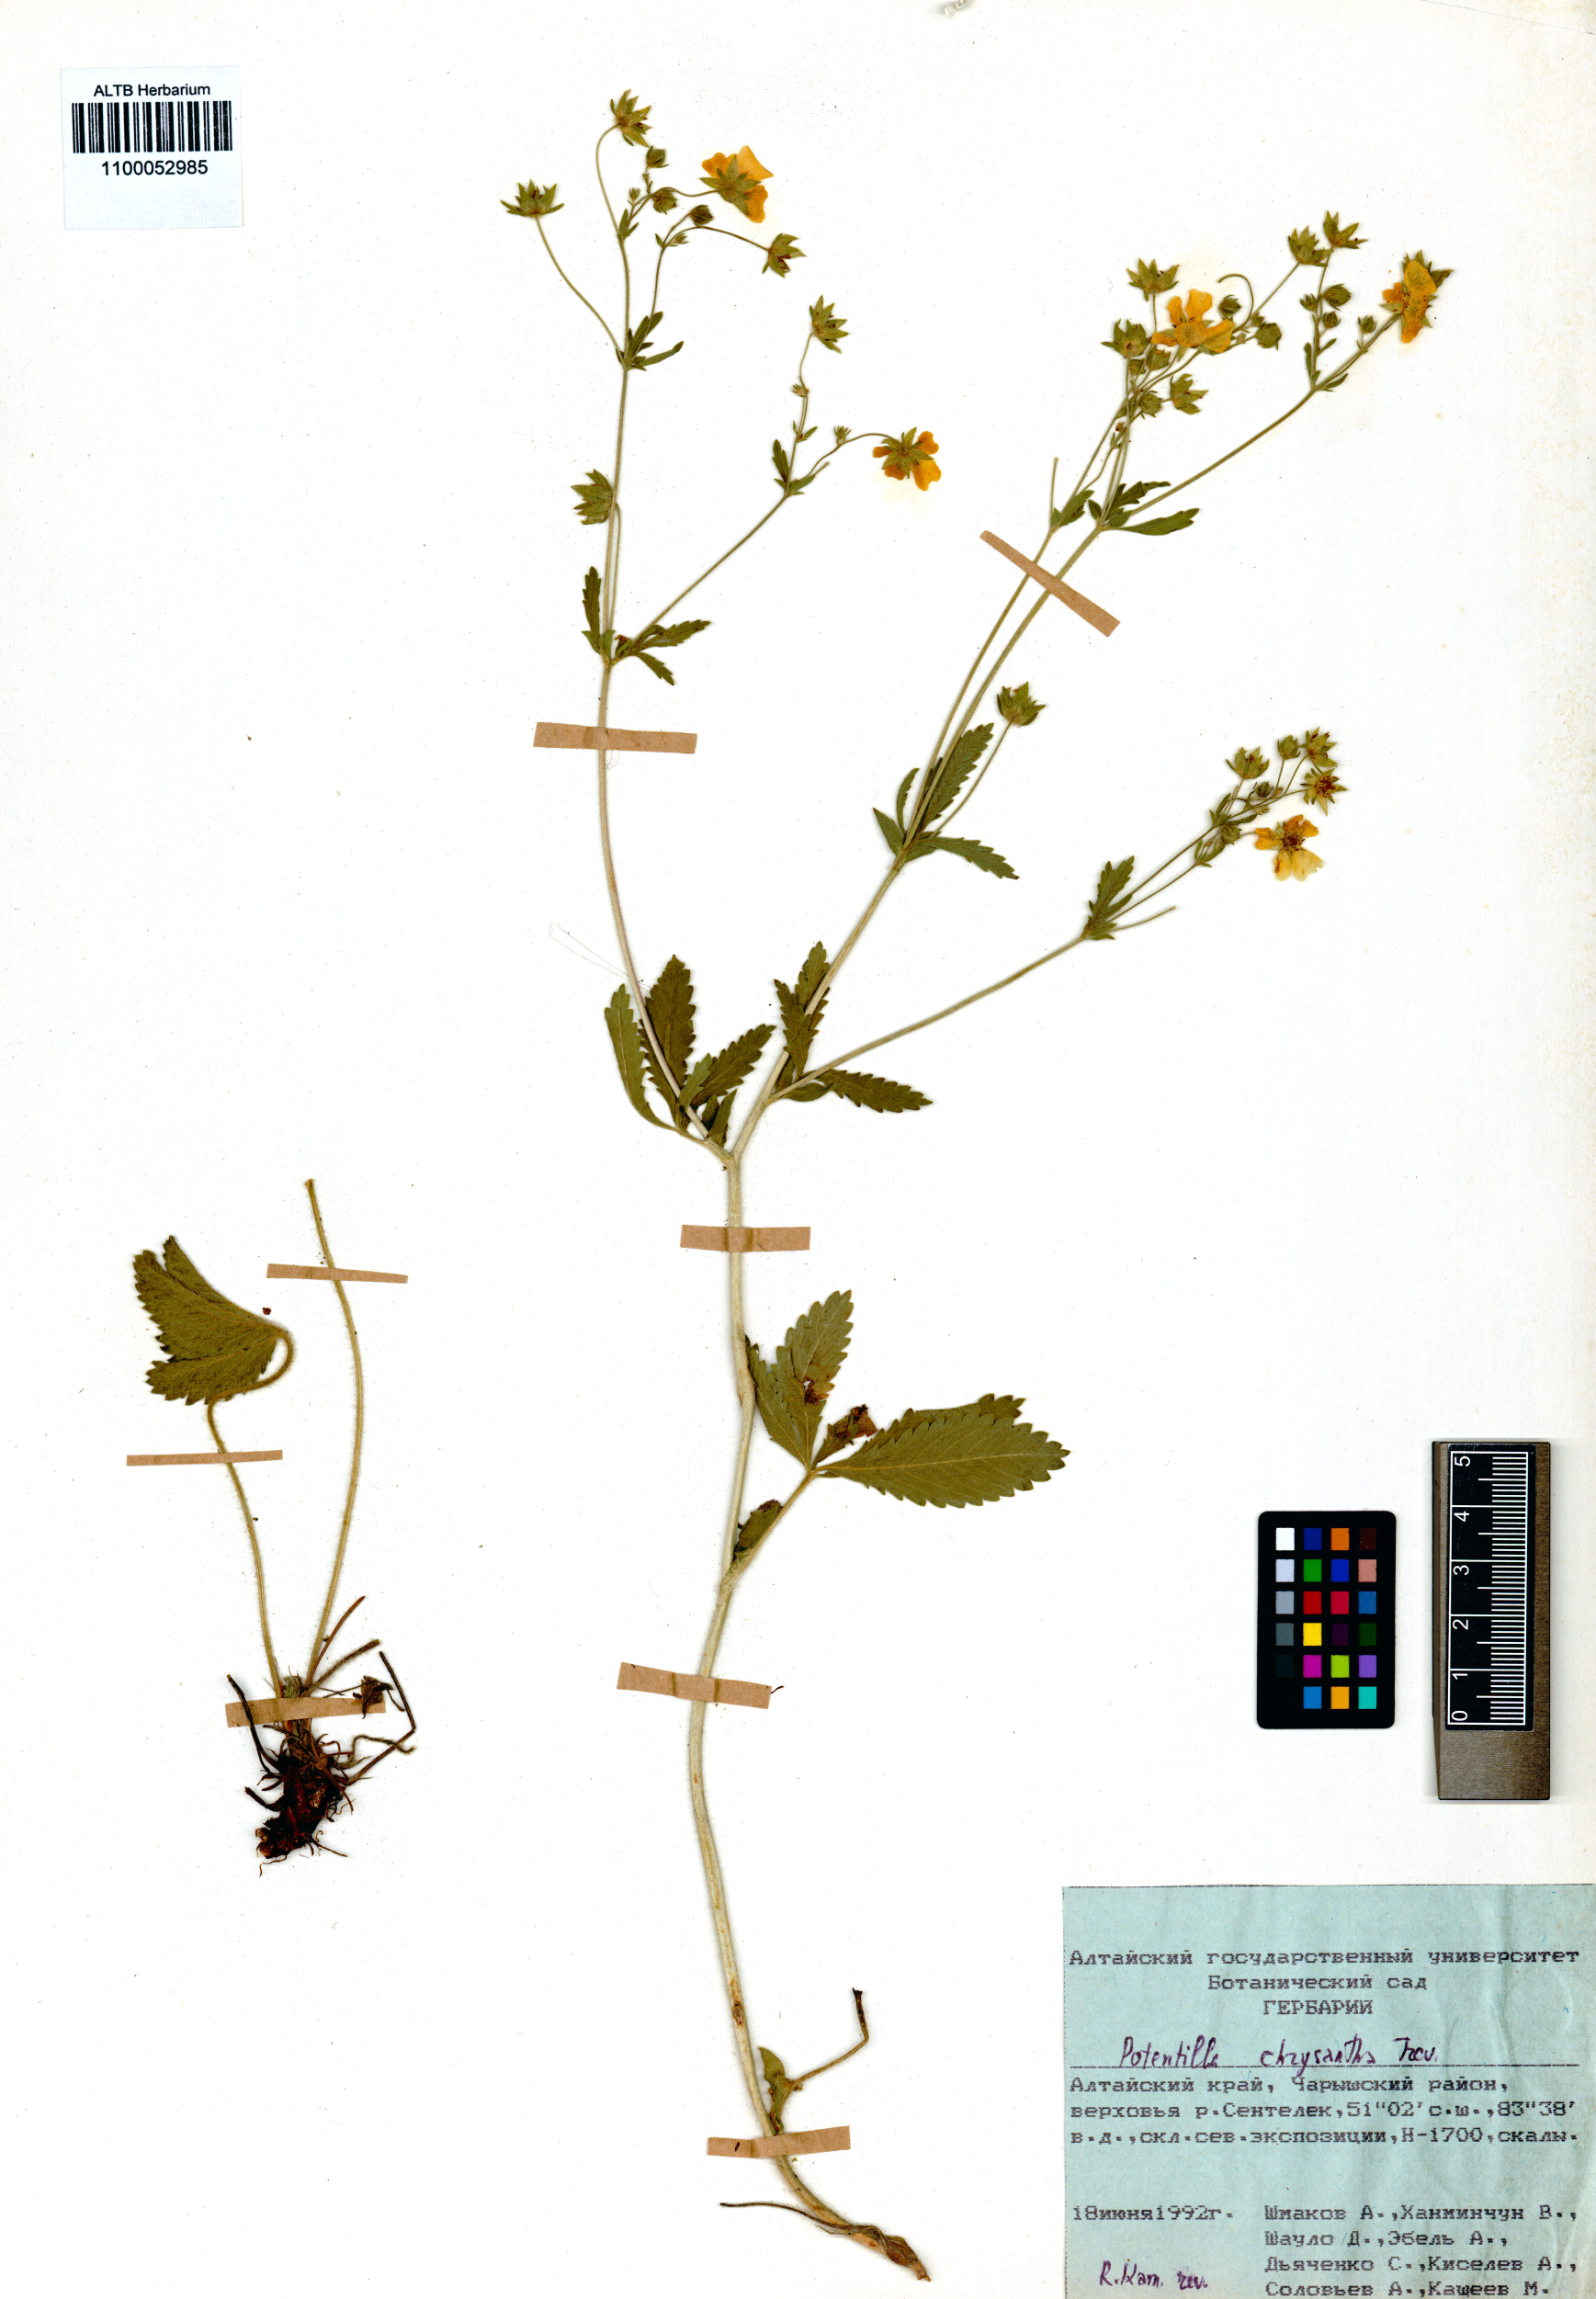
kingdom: Plantae
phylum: Tracheophyta
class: Magnoliopsida
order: Rosales
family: Rosaceae
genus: Potentilla
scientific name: Potentilla chrysantha
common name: Thuringian cinquefoil
